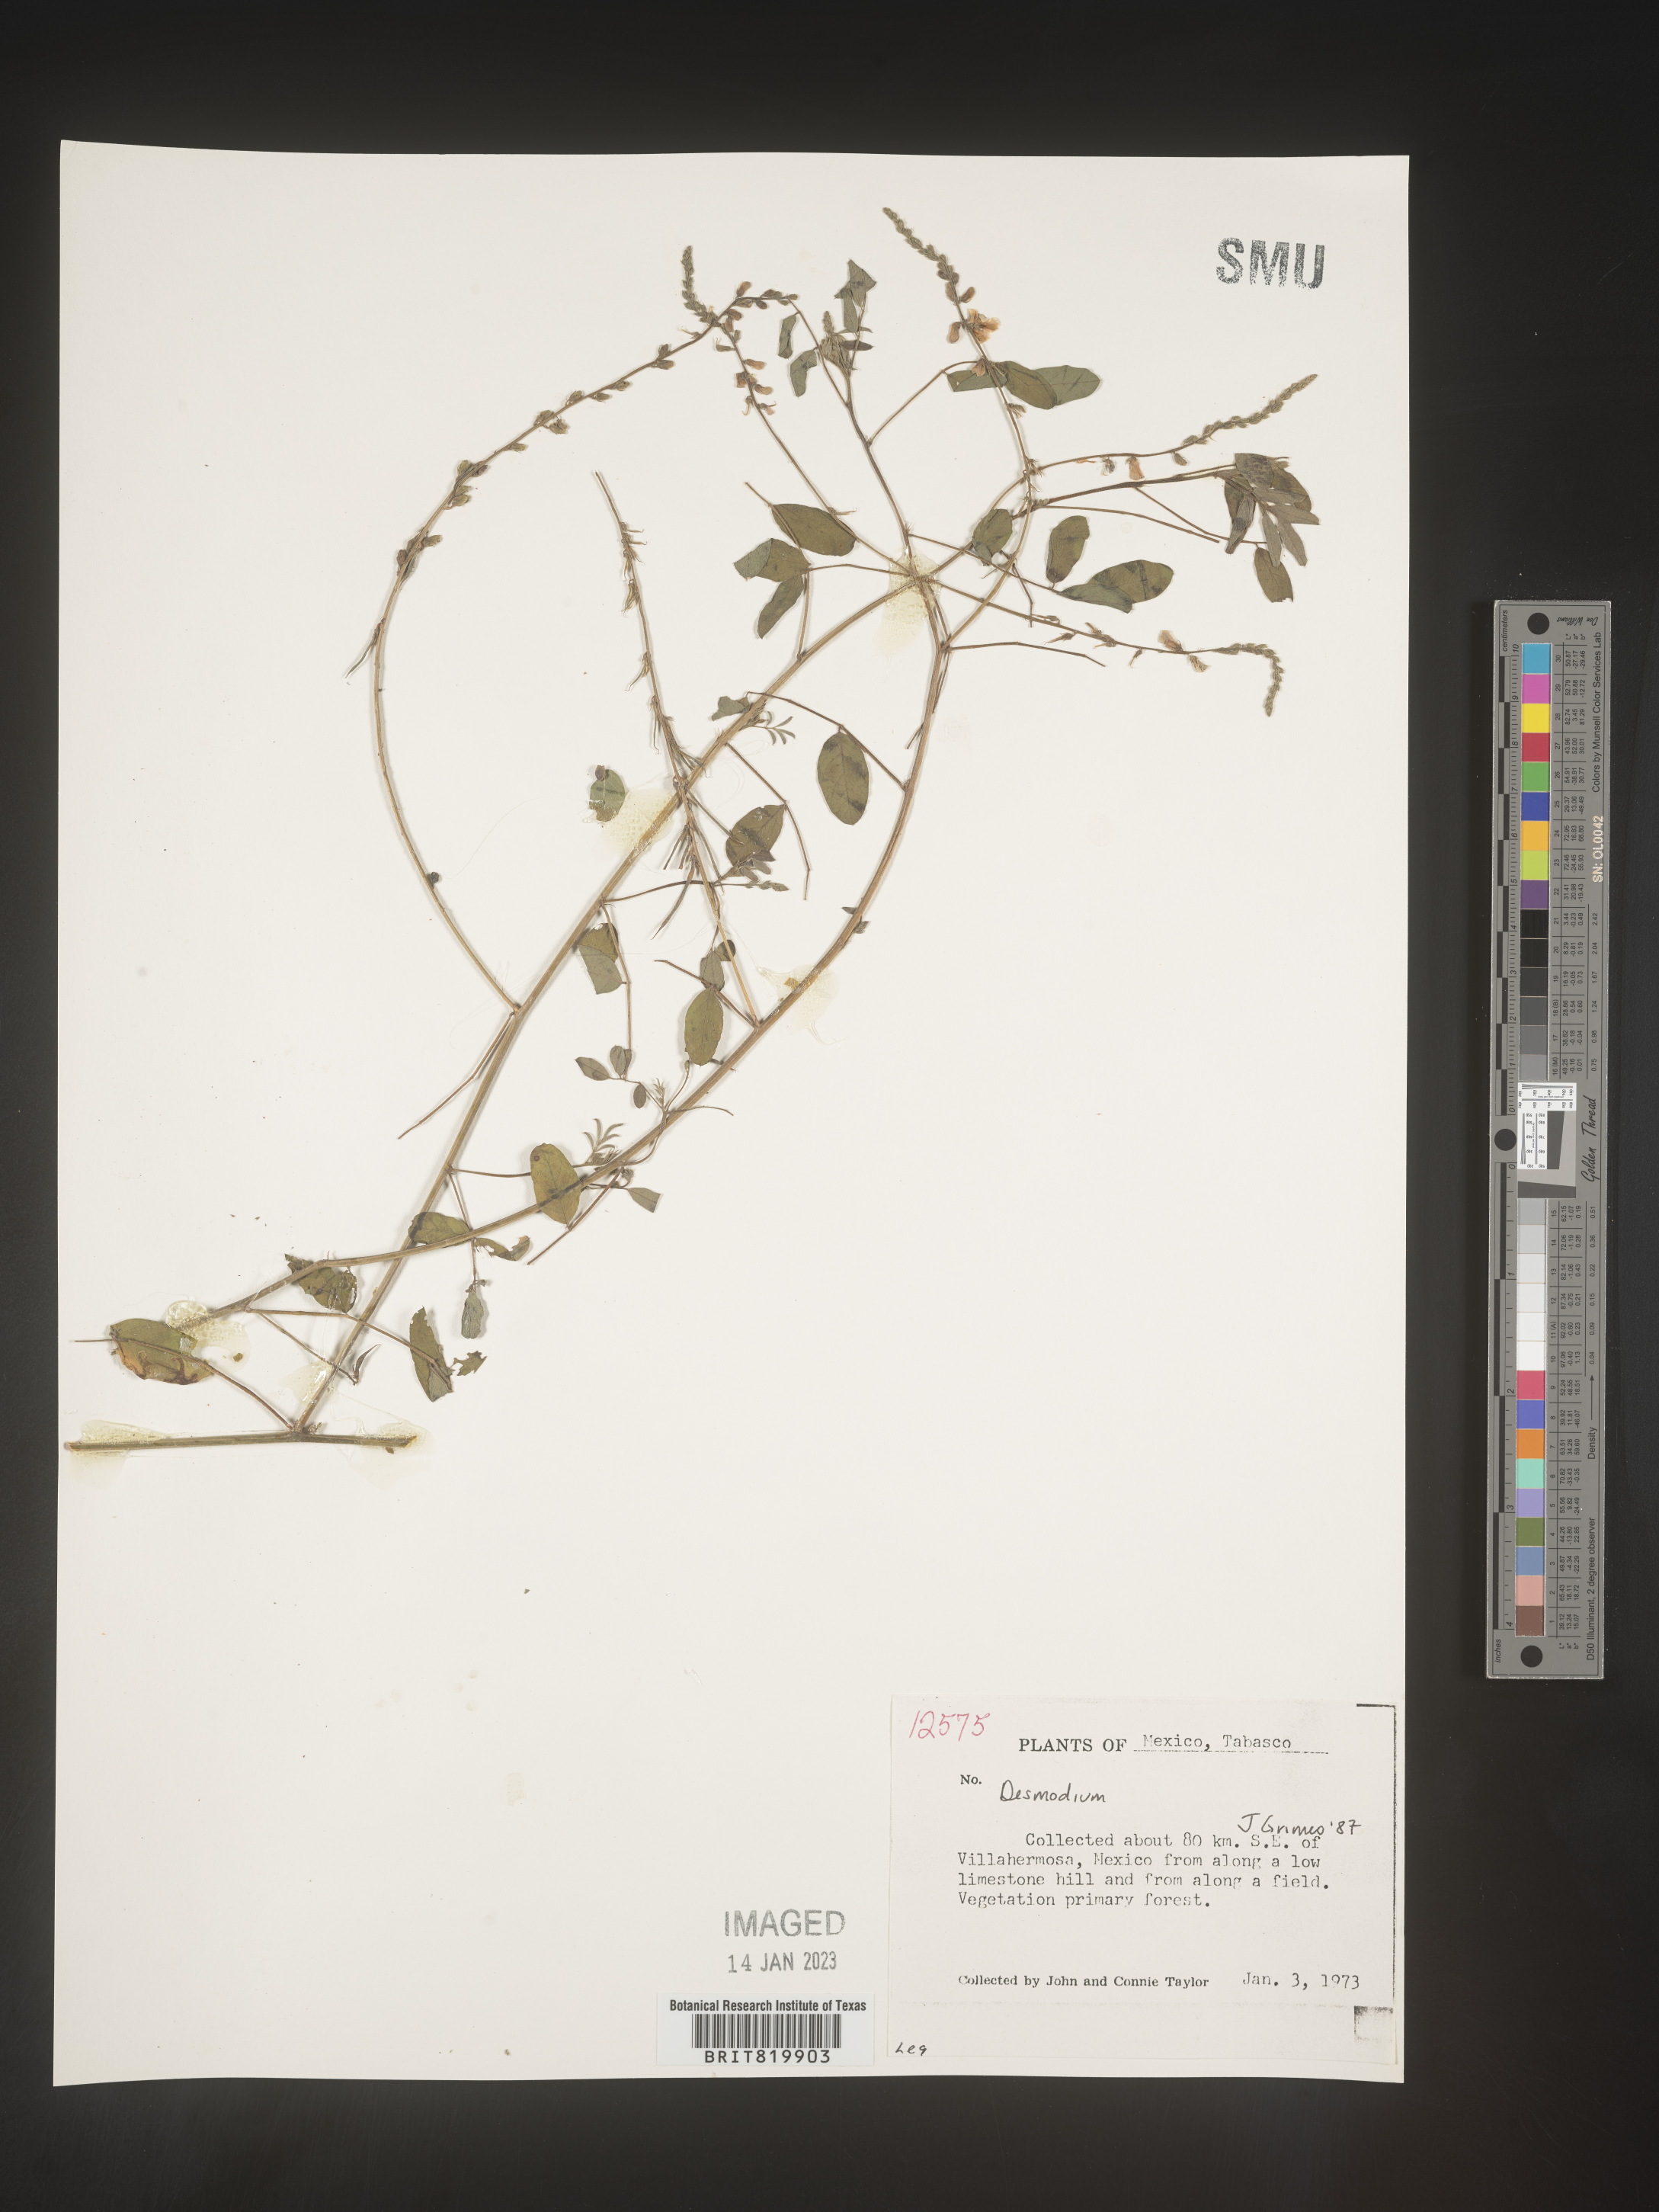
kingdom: Plantae
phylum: Tracheophyta
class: Magnoliopsida
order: Fabales
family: Fabaceae
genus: Desmodium
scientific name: Desmodium
